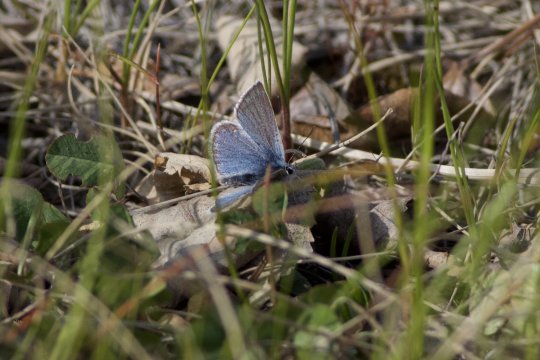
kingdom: Animalia
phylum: Arthropoda
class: Insecta
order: Lepidoptera
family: Lycaenidae
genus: Plebejus
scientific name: Plebejus saepiolus
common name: Greenish Blue
